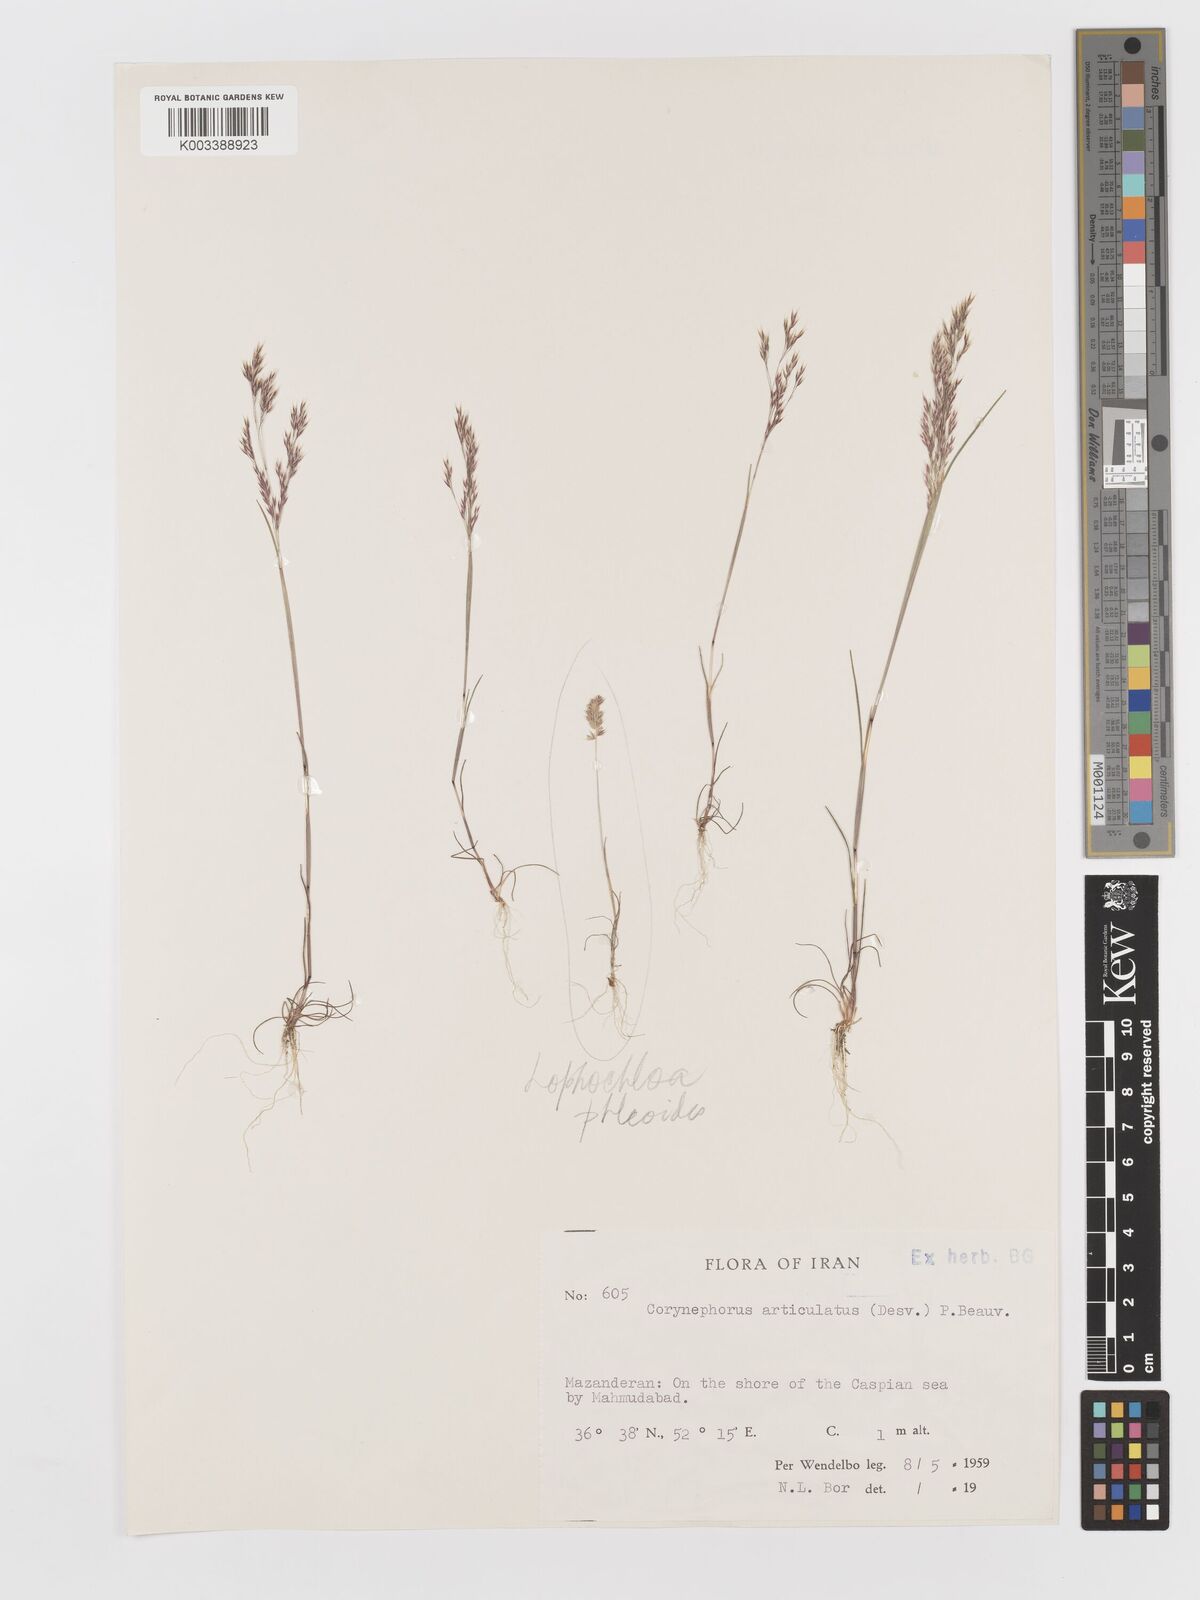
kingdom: Plantae
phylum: Tracheophyta
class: Liliopsida
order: Poales
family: Poaceae
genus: Corynephorus
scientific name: Corynephorus divaricatus
